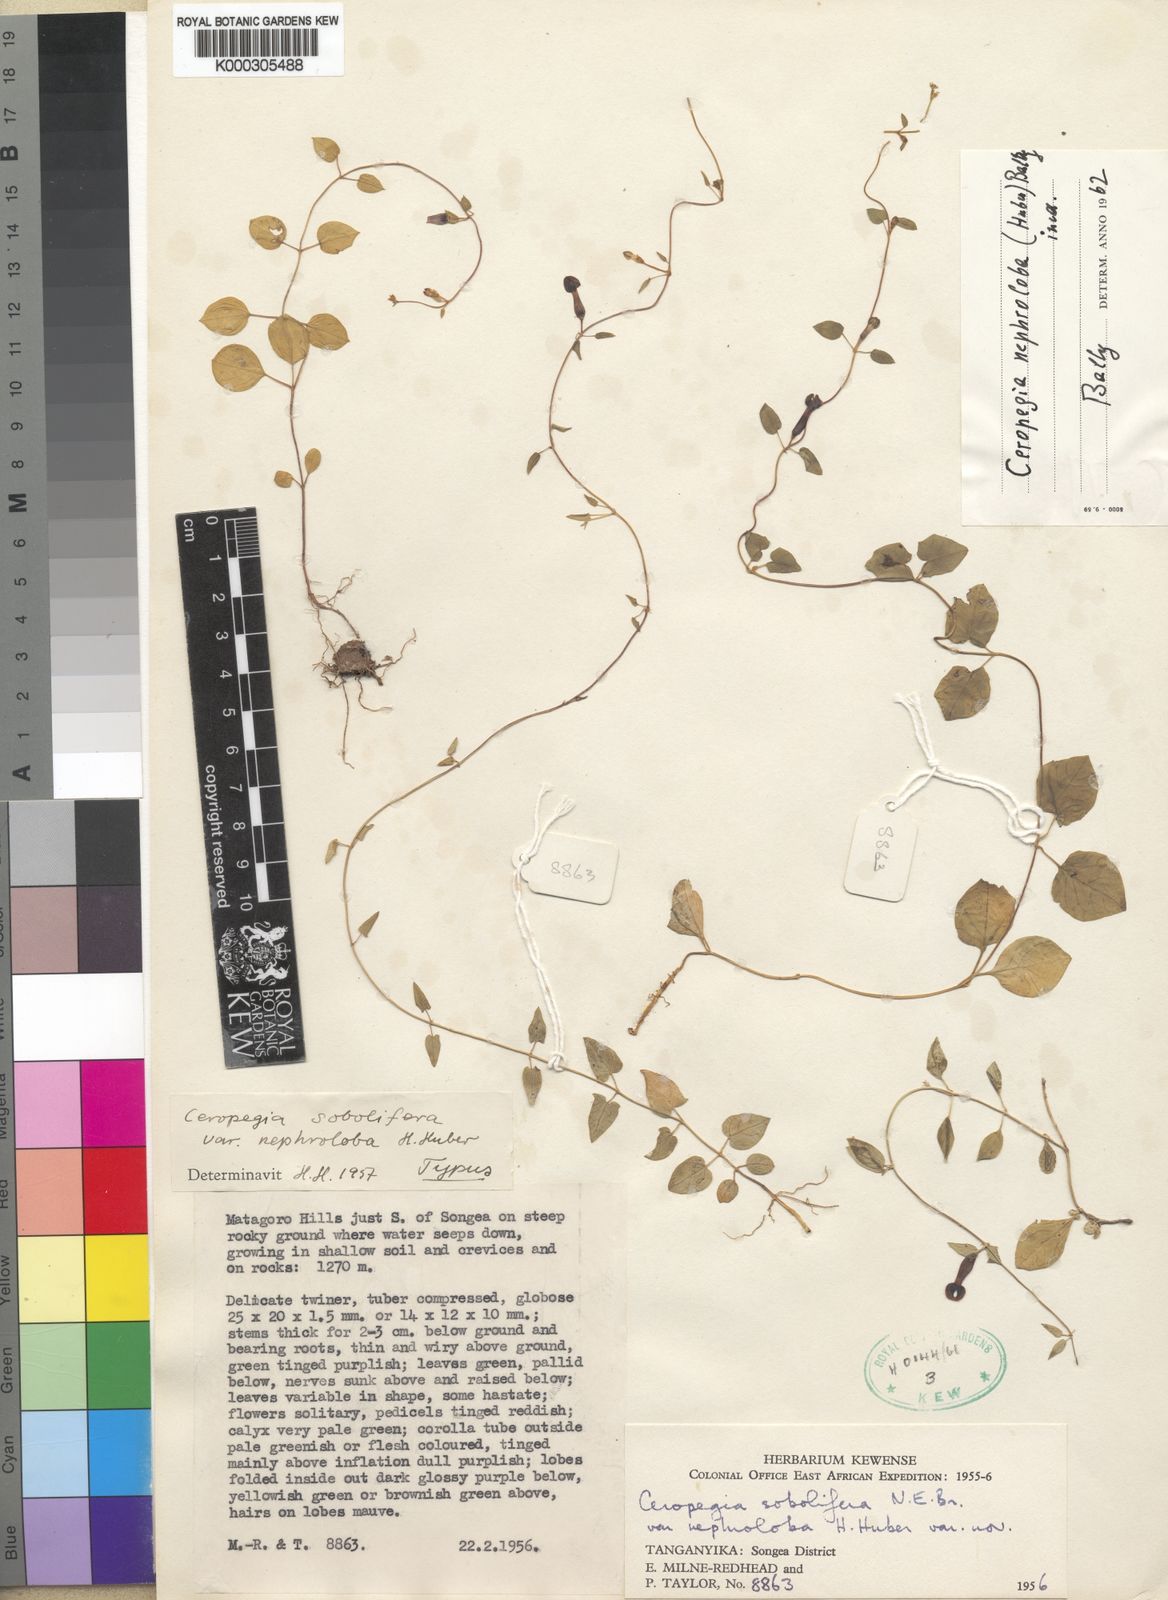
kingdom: Plantae
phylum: Tracheophyta
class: Magnoliopsida
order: Gentianales
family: Apocynaceae
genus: Ceropegia
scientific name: Ceropegia nephroloba
